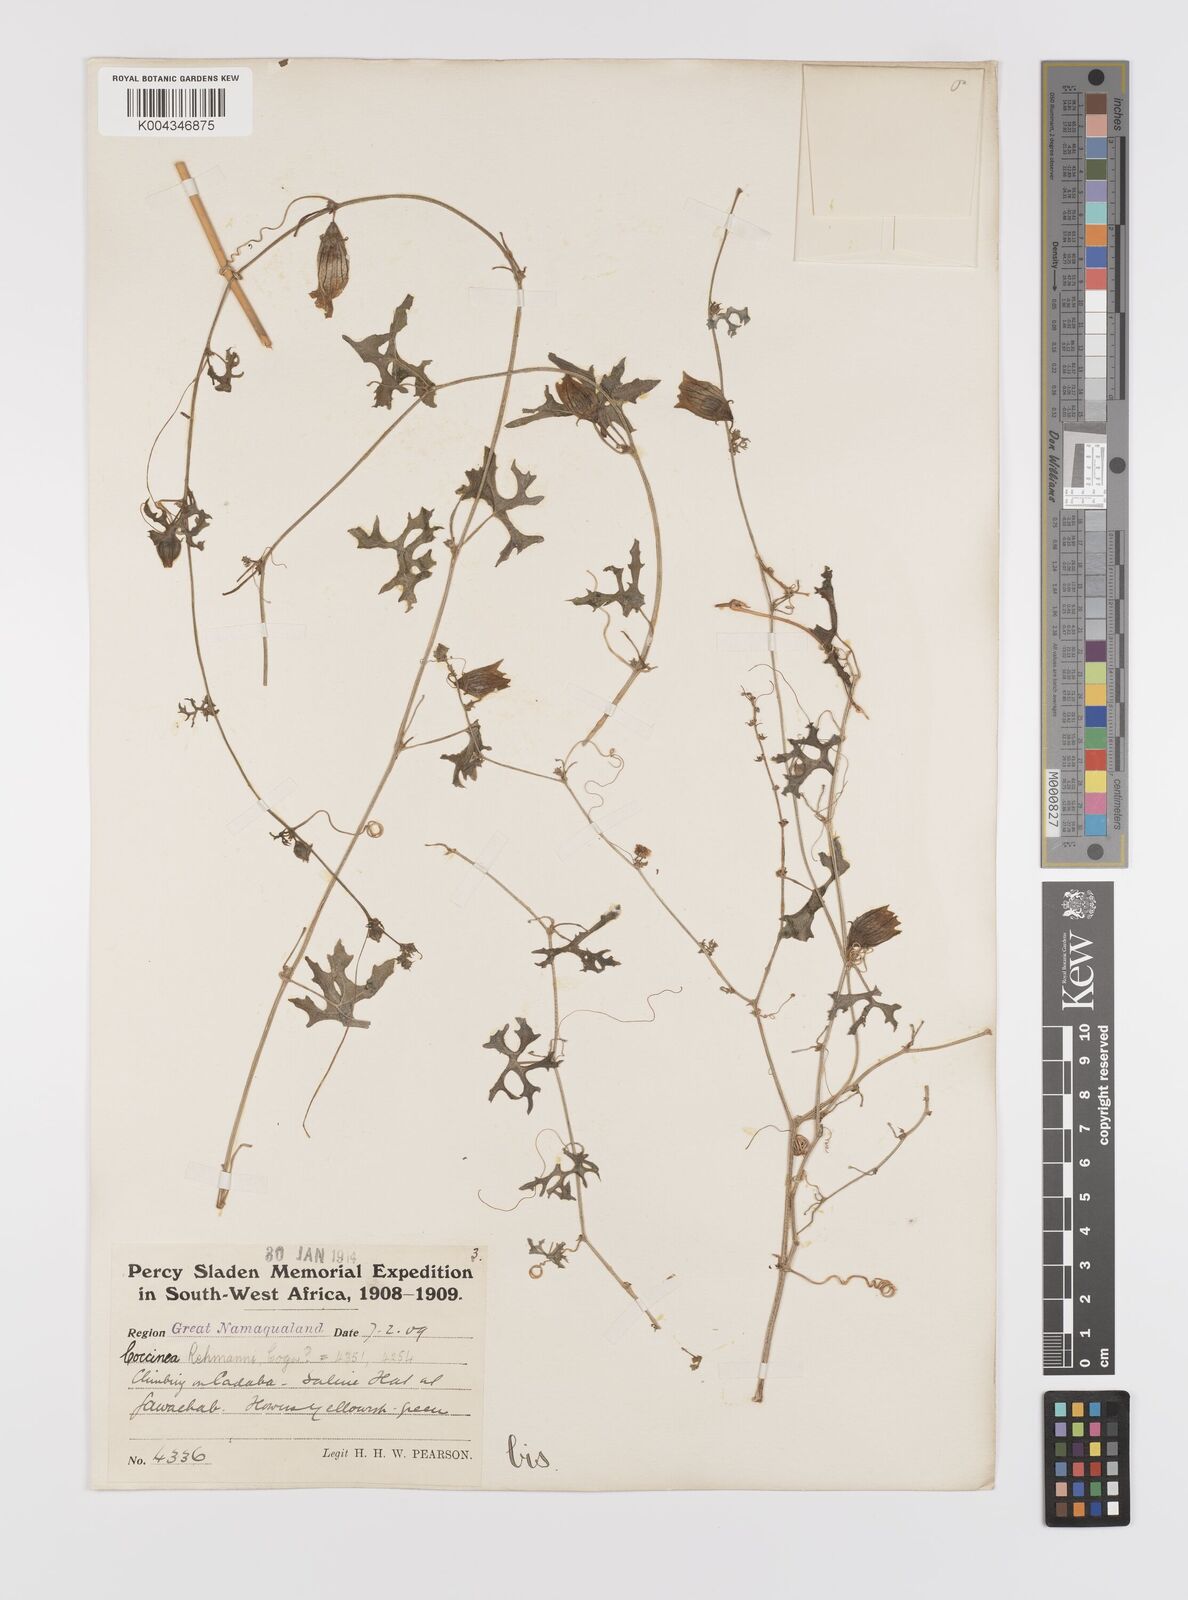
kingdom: Plantae
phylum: Tracheophyta
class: Magnoliopsida
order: Cucurbitales
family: Cucurbitaceae
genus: Coccinia
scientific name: Coccinia rehmannii
